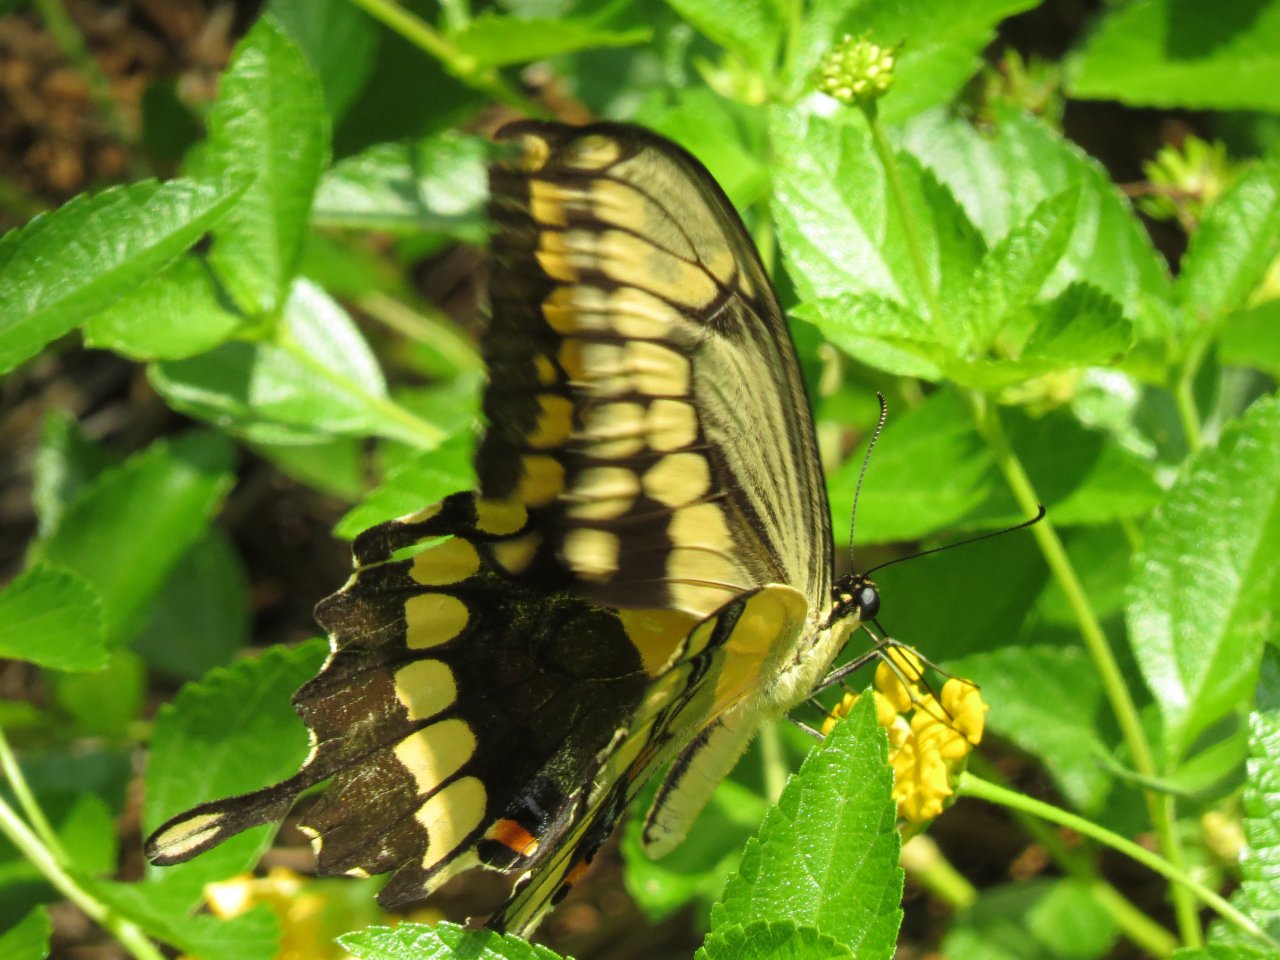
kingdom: Animalia
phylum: Arthropoda
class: Insecta
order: Lepidoptera
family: Papilionidae
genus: Papilio
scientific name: Papilio cresphontes
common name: Eastern Giant Swallowtail
